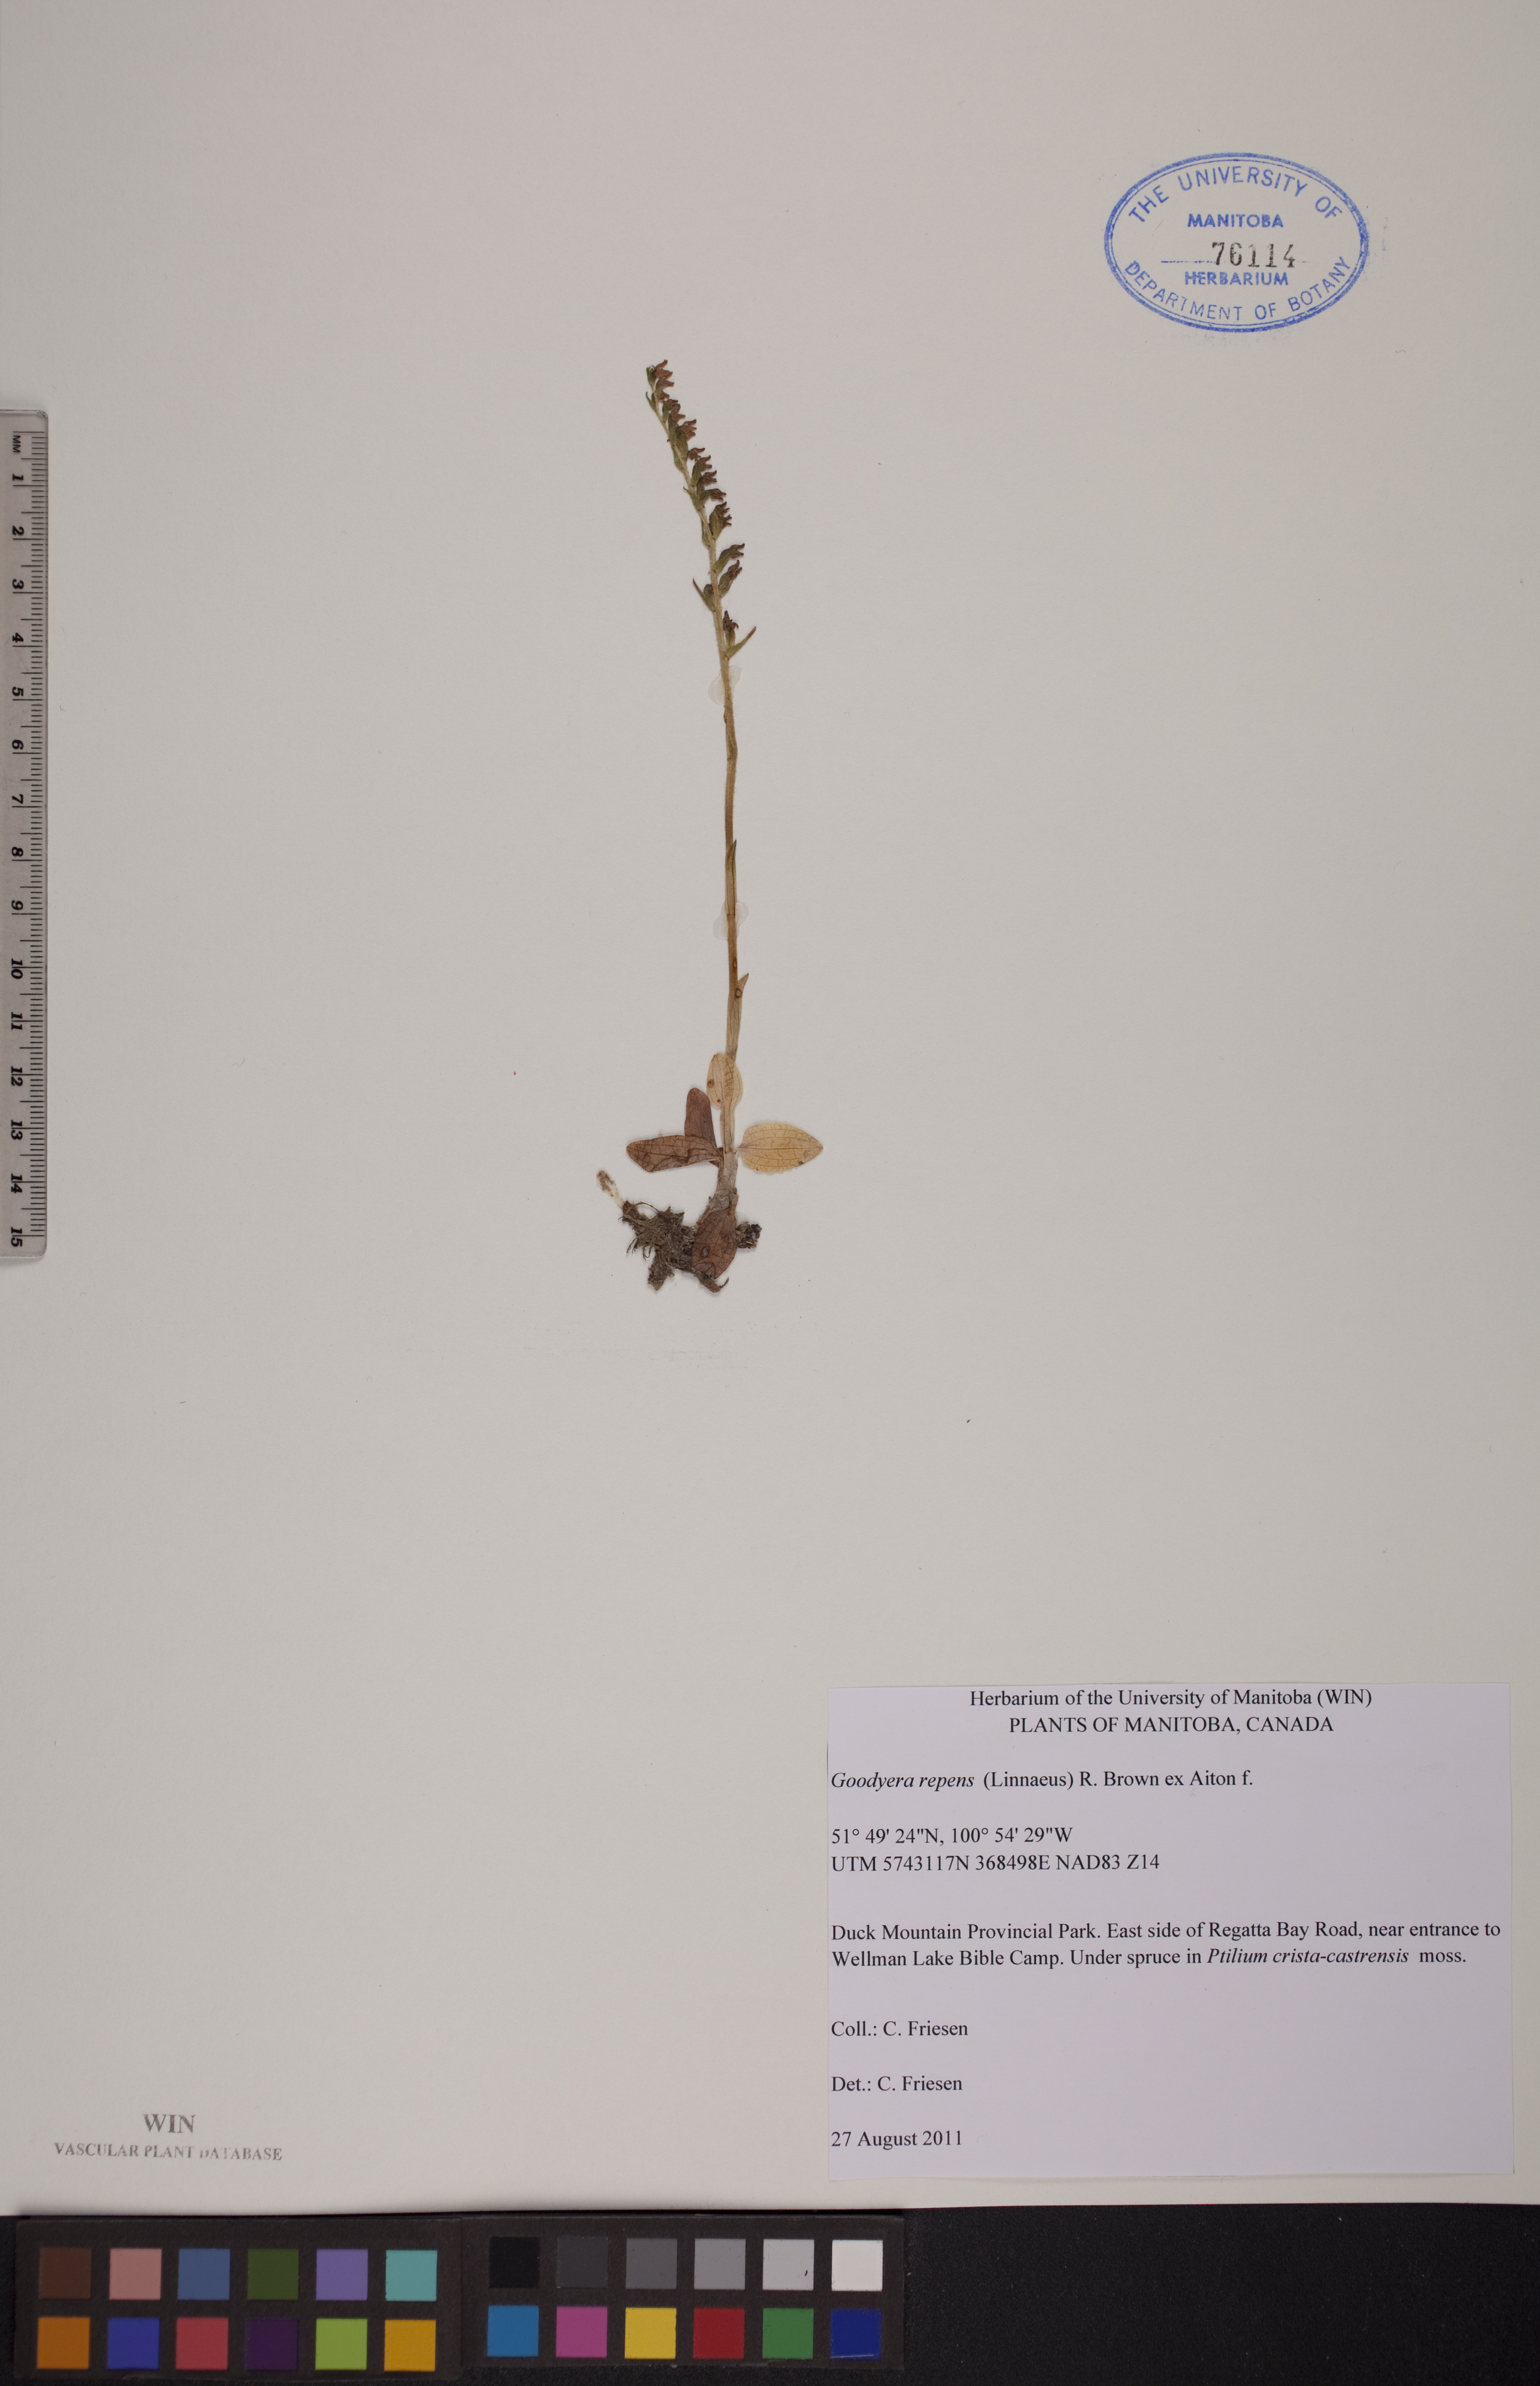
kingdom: Plantae
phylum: Tracheophyta
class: Liliopsida
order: Asparagales
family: Orchidaceae
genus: Goodyera
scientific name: Goodyera repens
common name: Creeping lady's-tresses
